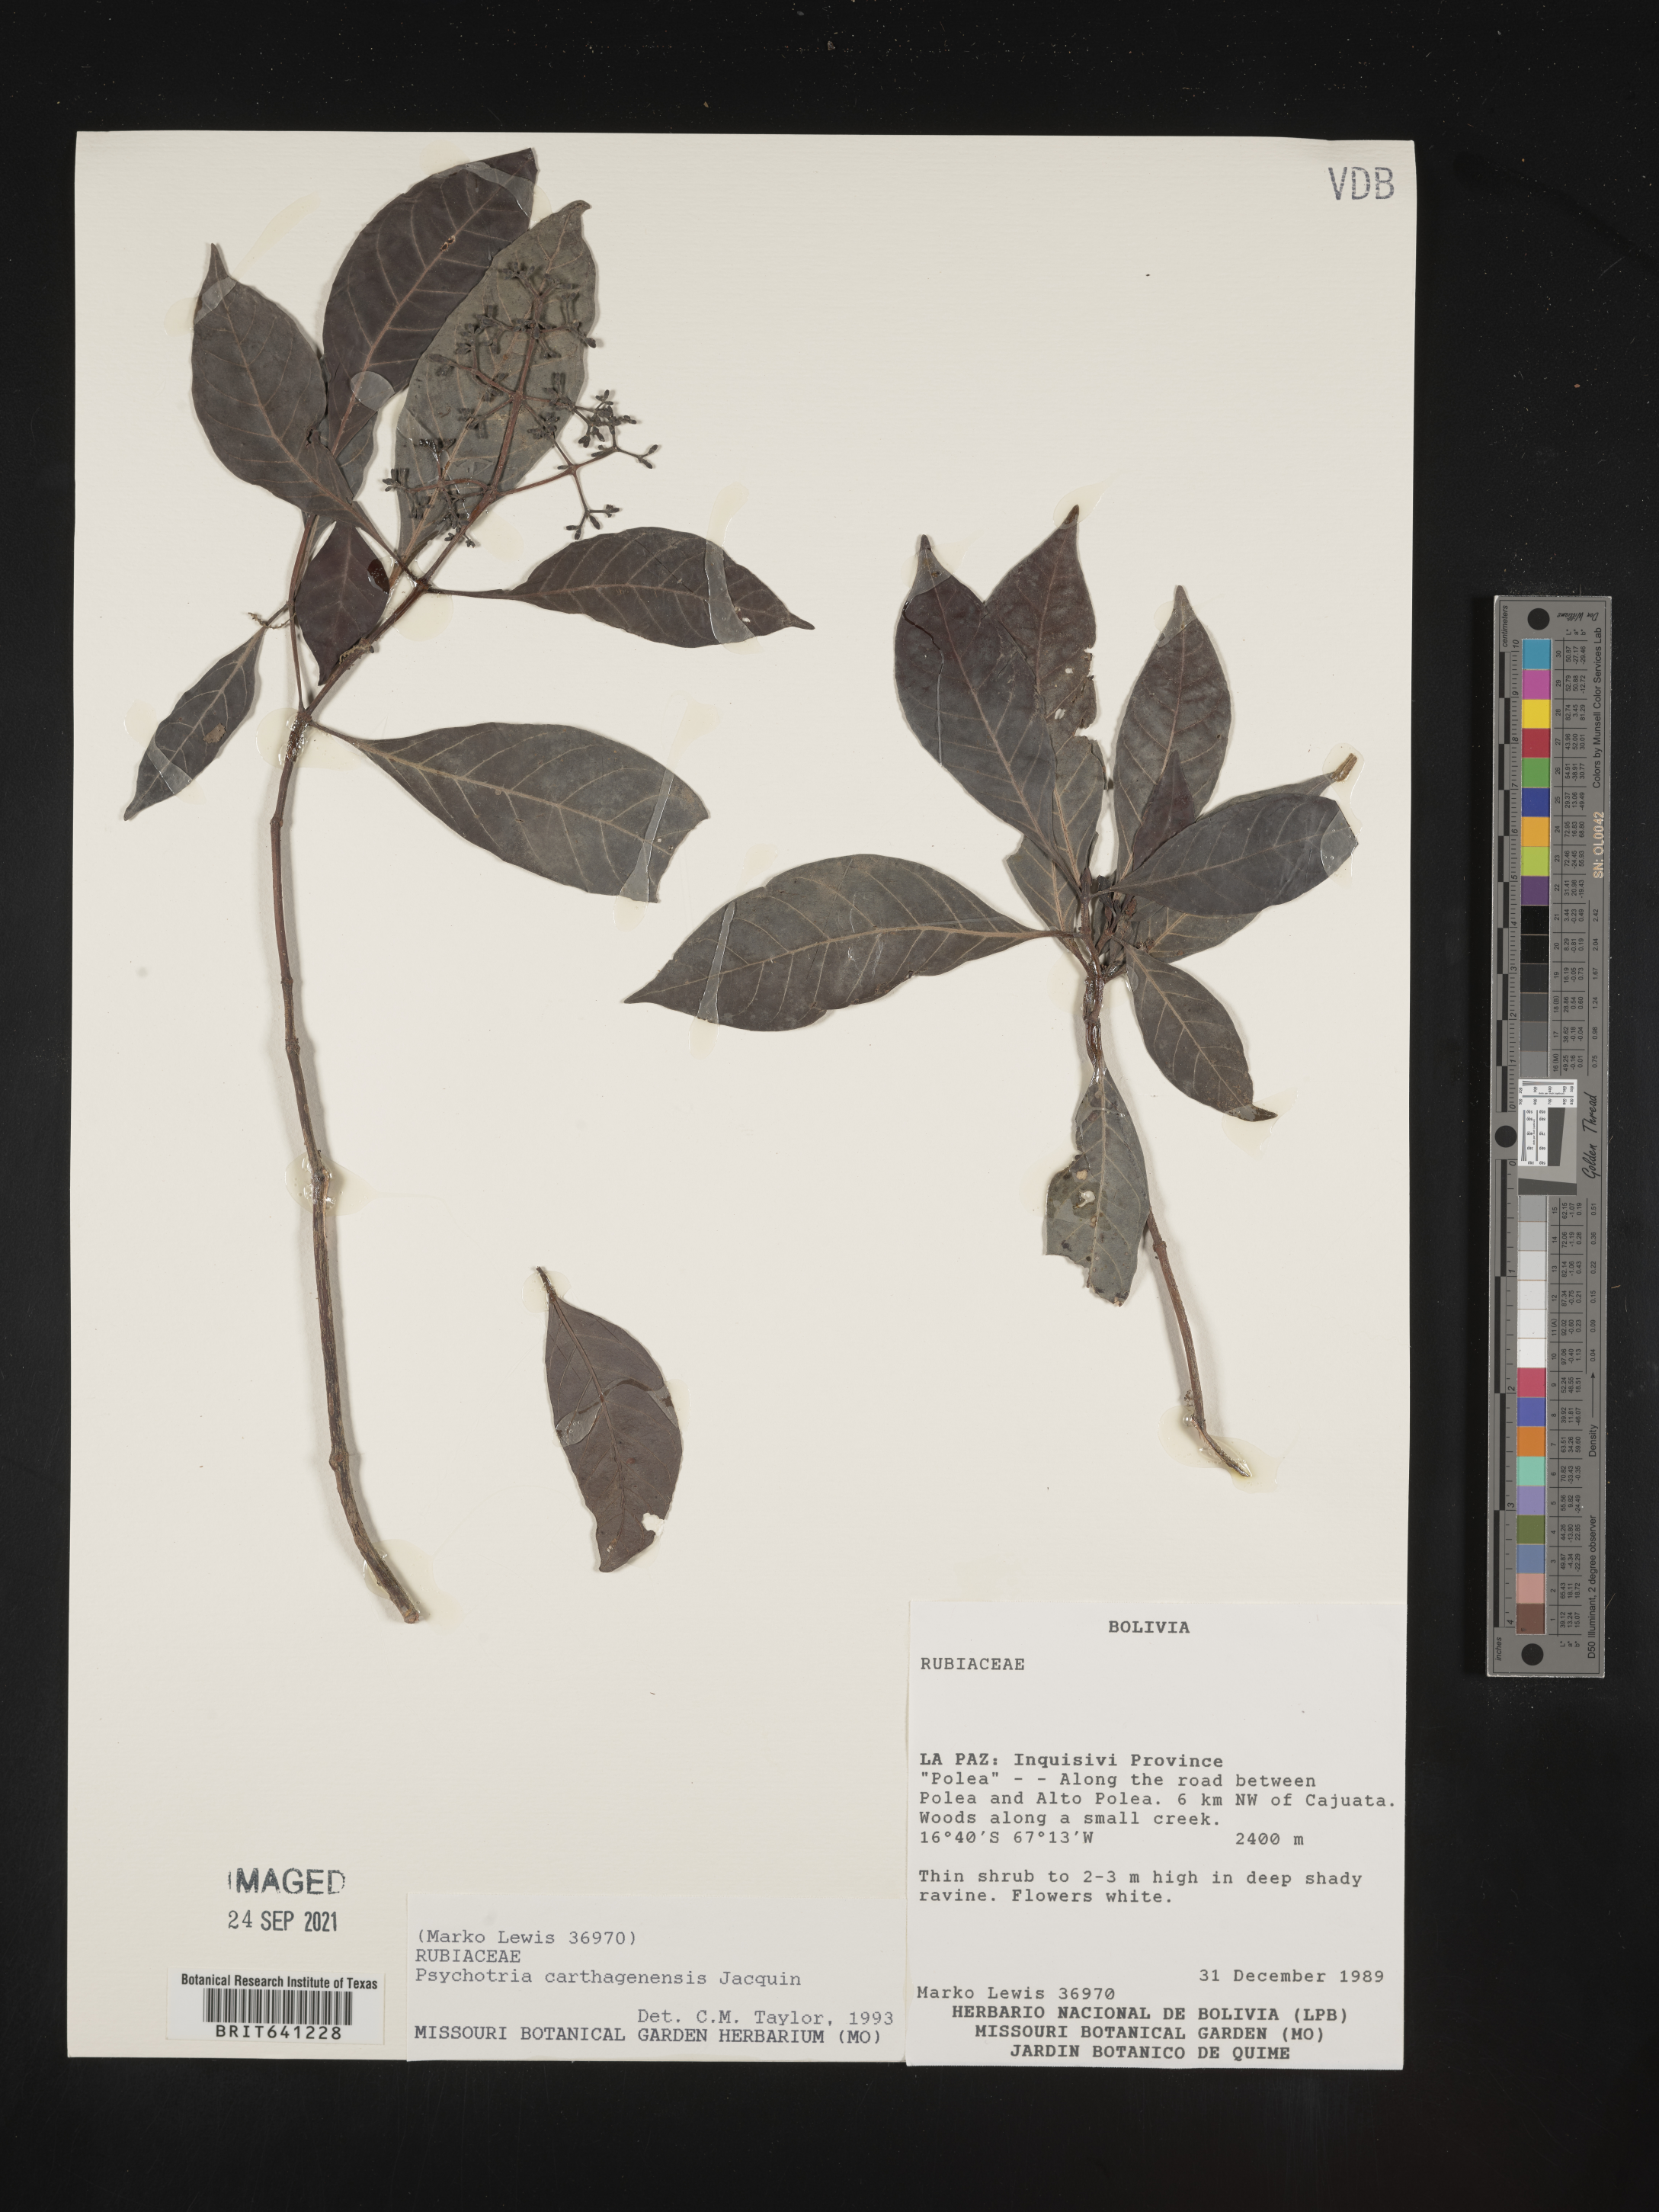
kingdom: Plantae
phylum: Tracheophyta
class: Magnoliopsida
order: Gentianales
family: Rubiaceae
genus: Psychotria
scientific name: Psychotria
